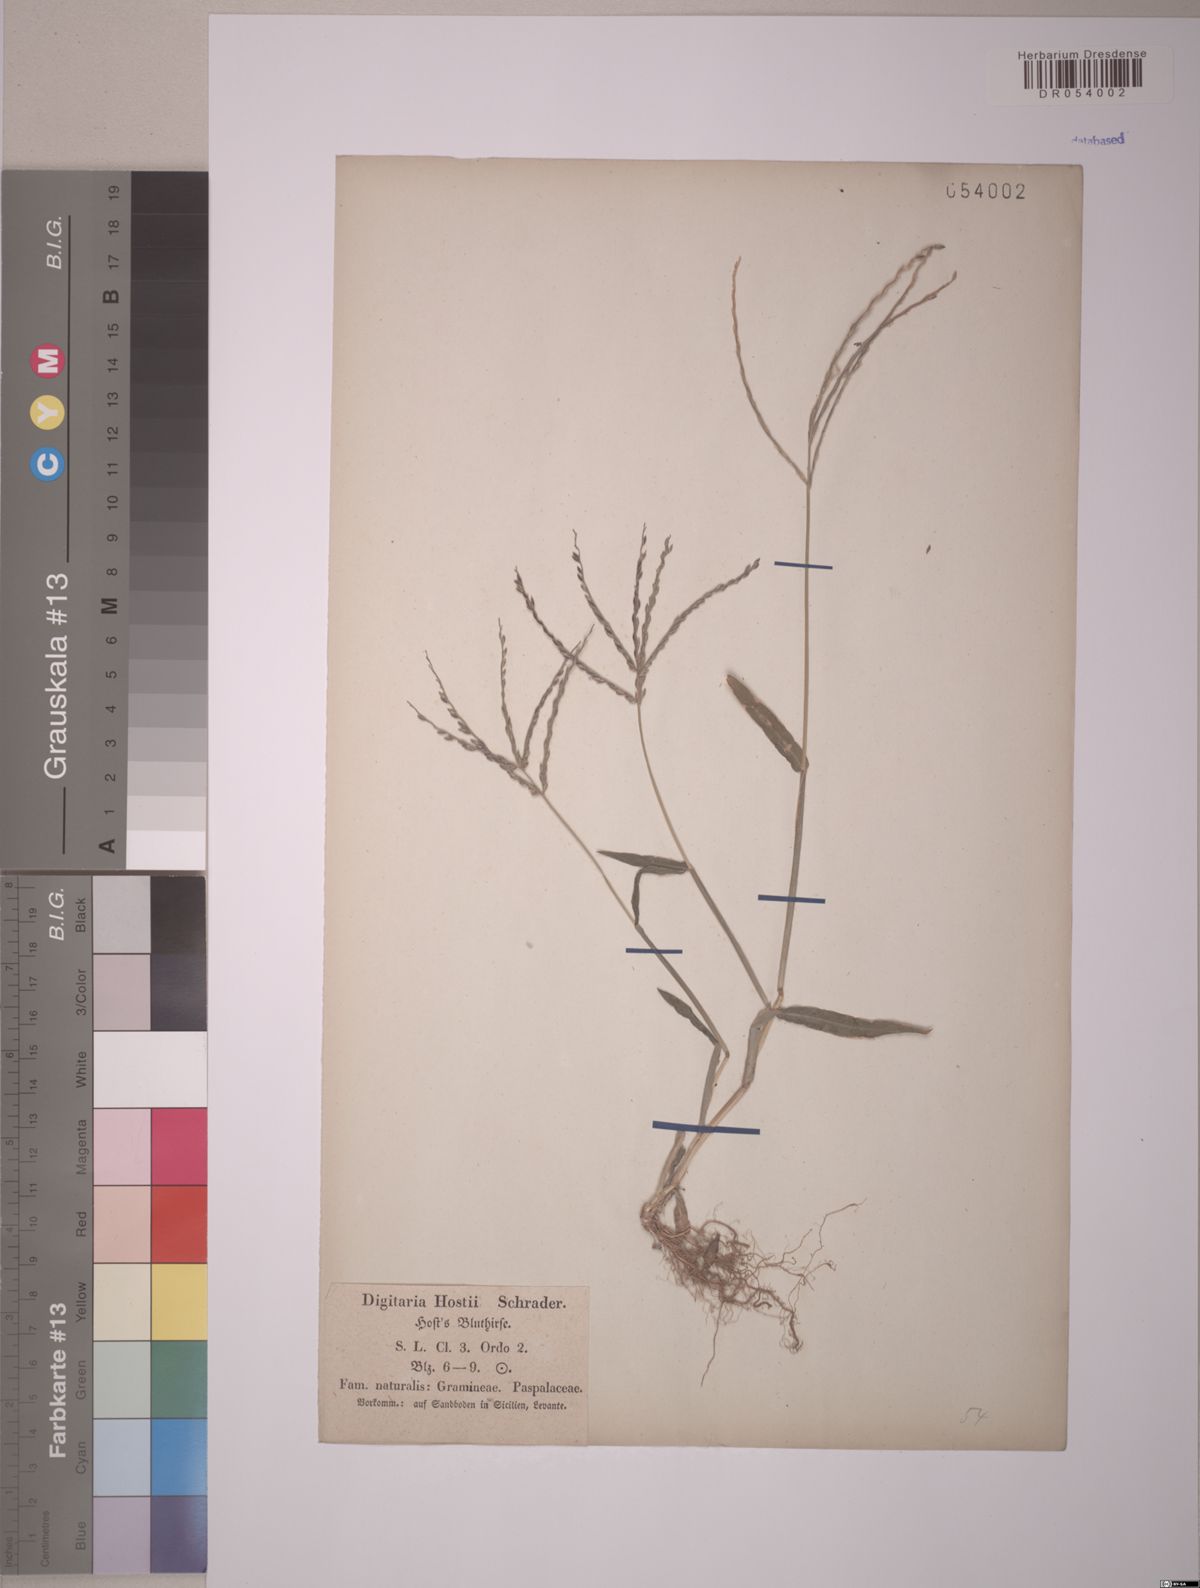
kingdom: Plantae
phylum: Tracheophyta
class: Liliopsida
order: Poales
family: Poaceae
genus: Digitaria
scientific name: Digitaria
